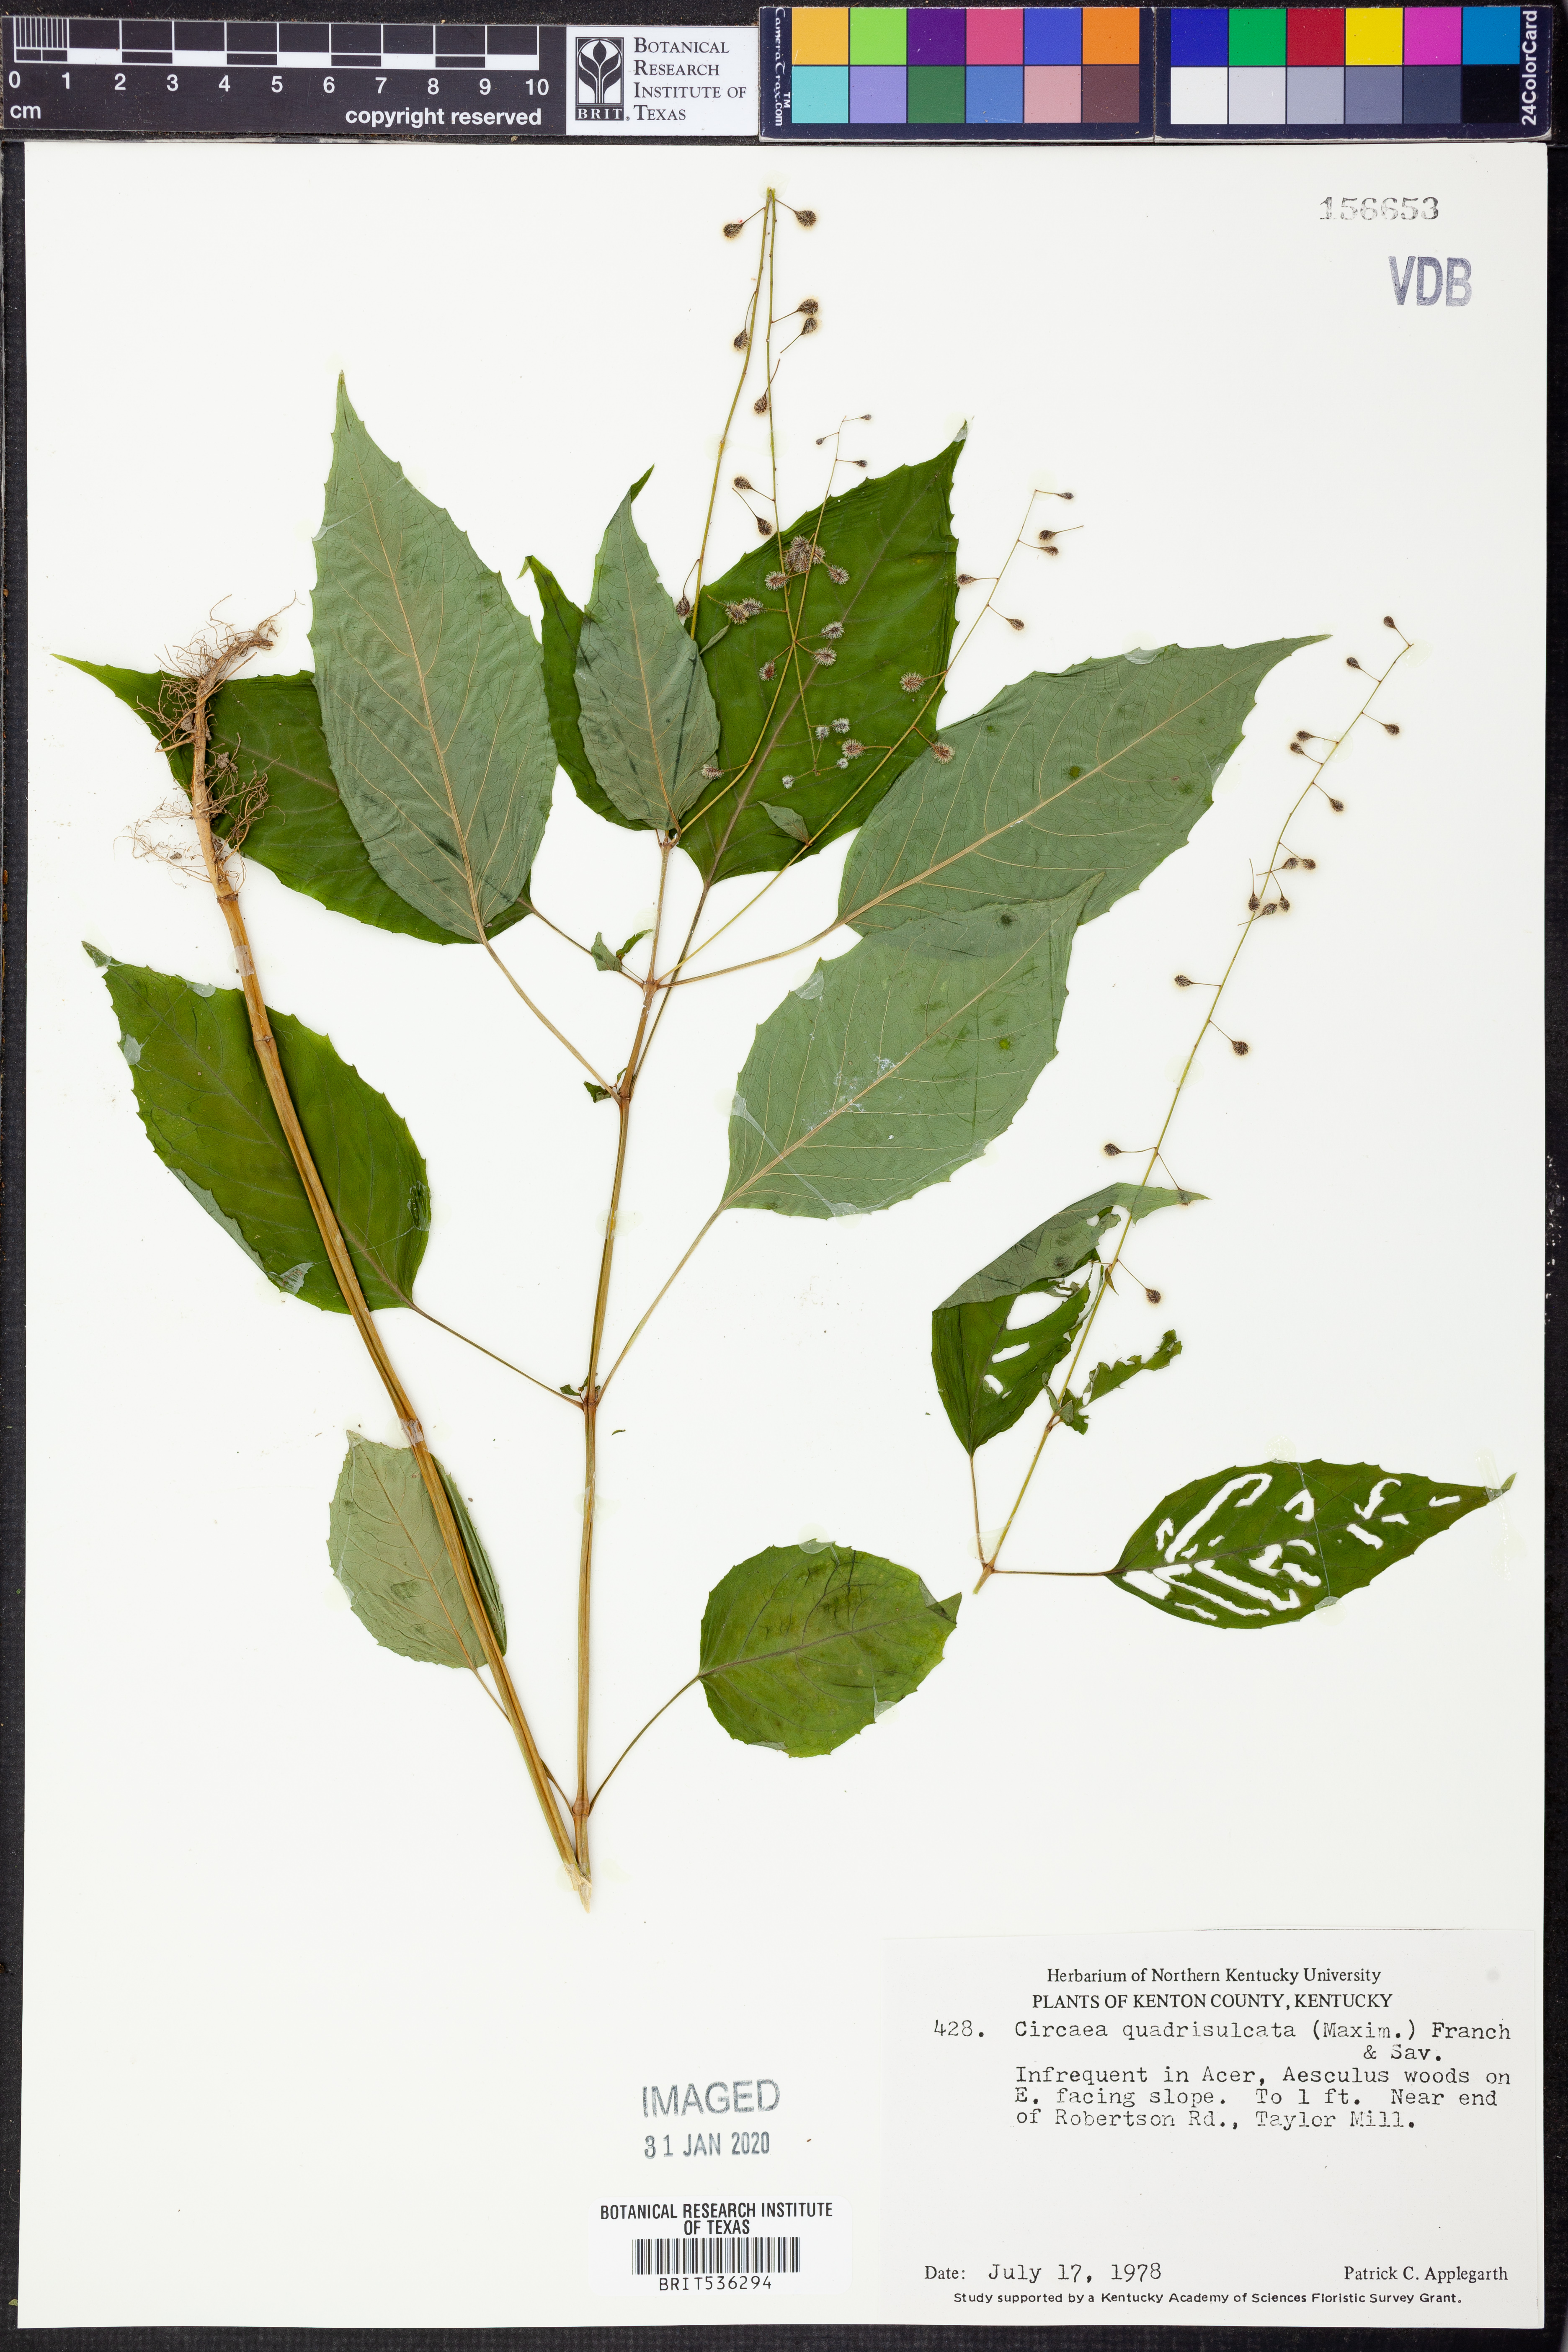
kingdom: Plantae
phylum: Tracheophyta
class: Magnoliopsida
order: Myrtales
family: Onagraceae
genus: Circaea
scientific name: Circaea canadensis
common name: Broad-leaved enchanter's nightshade
